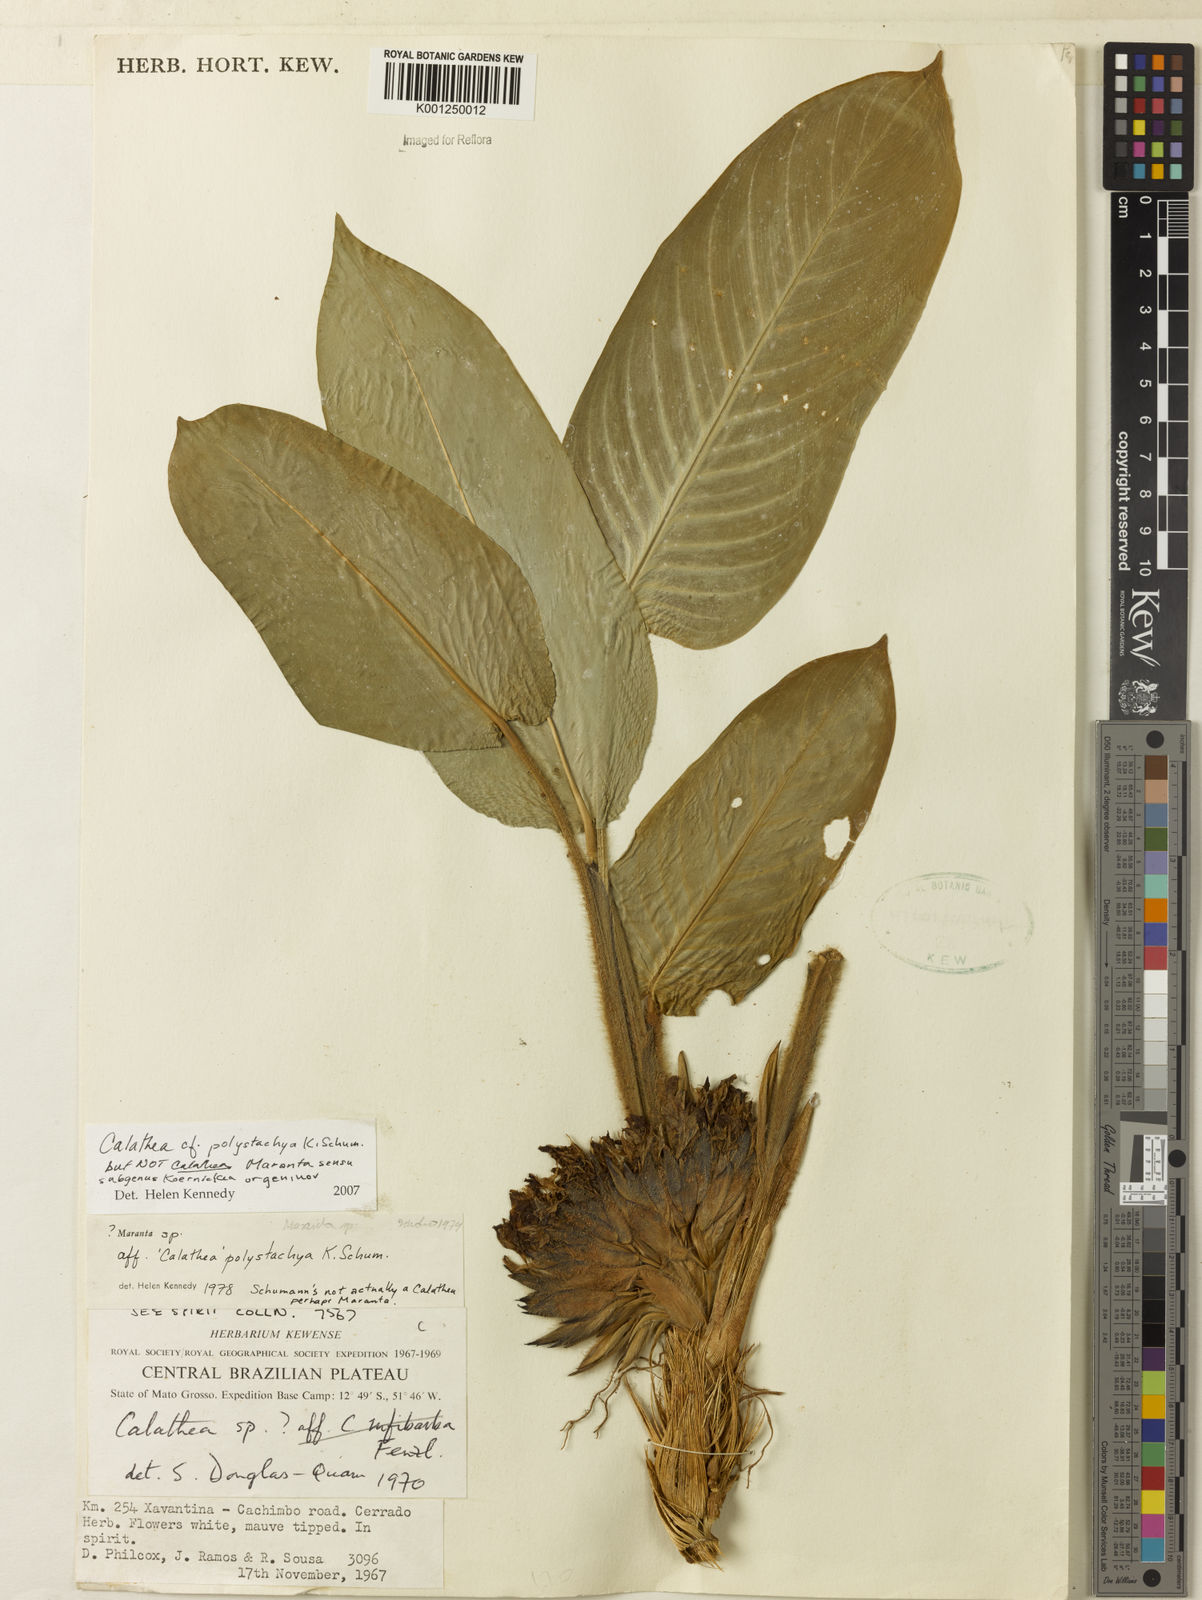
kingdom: Plantae
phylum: Tracheophyta
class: Liliopsida
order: Zingiberales
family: Marantaceae
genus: Ischnosiphon
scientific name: Ischnosiphon polyphyllus
